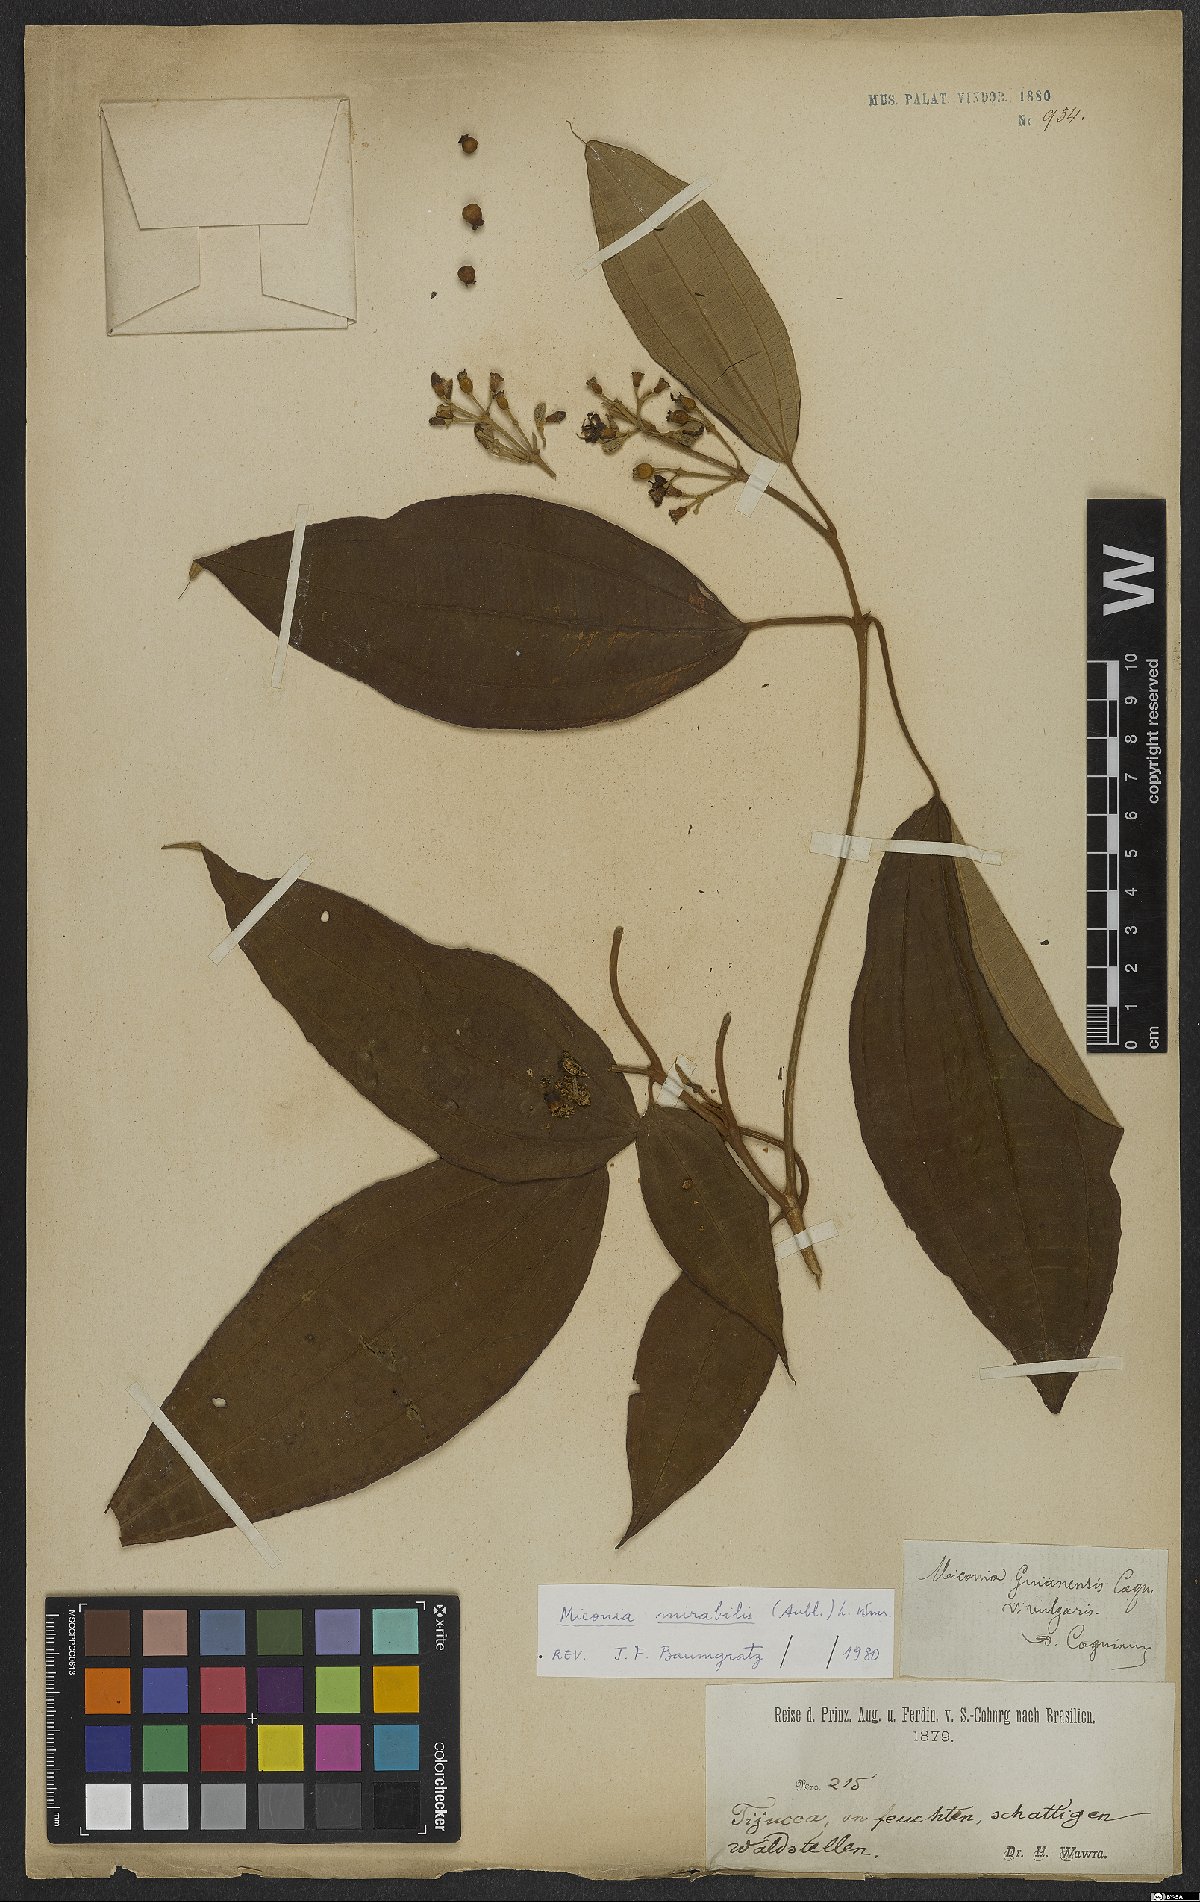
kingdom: Plantae
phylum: Tracheophyta
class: Magnoliopsida
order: Myrtales
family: Melastomataceae
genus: Miconia
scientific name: Miconia mirabilis
